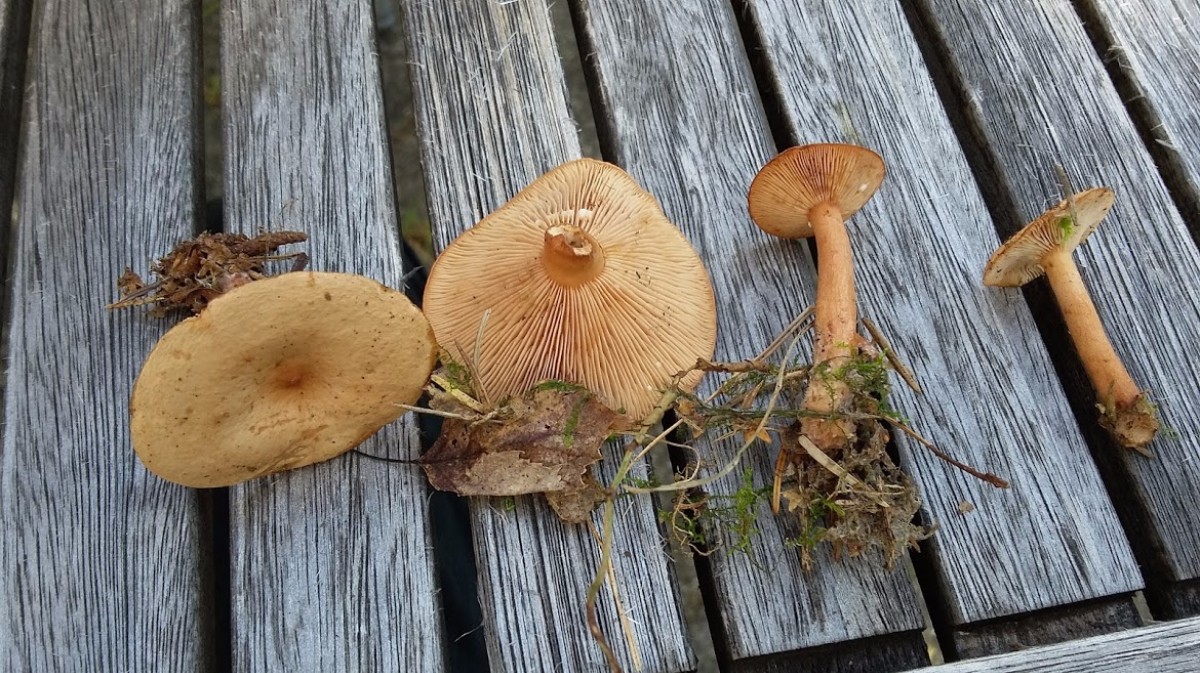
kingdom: Fungi
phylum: Basidiomycota
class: Agaricomycetes
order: Russulales
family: Russulaceae
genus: Lactarius
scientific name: Lactarius rufus
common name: rødbrun mælkehat
